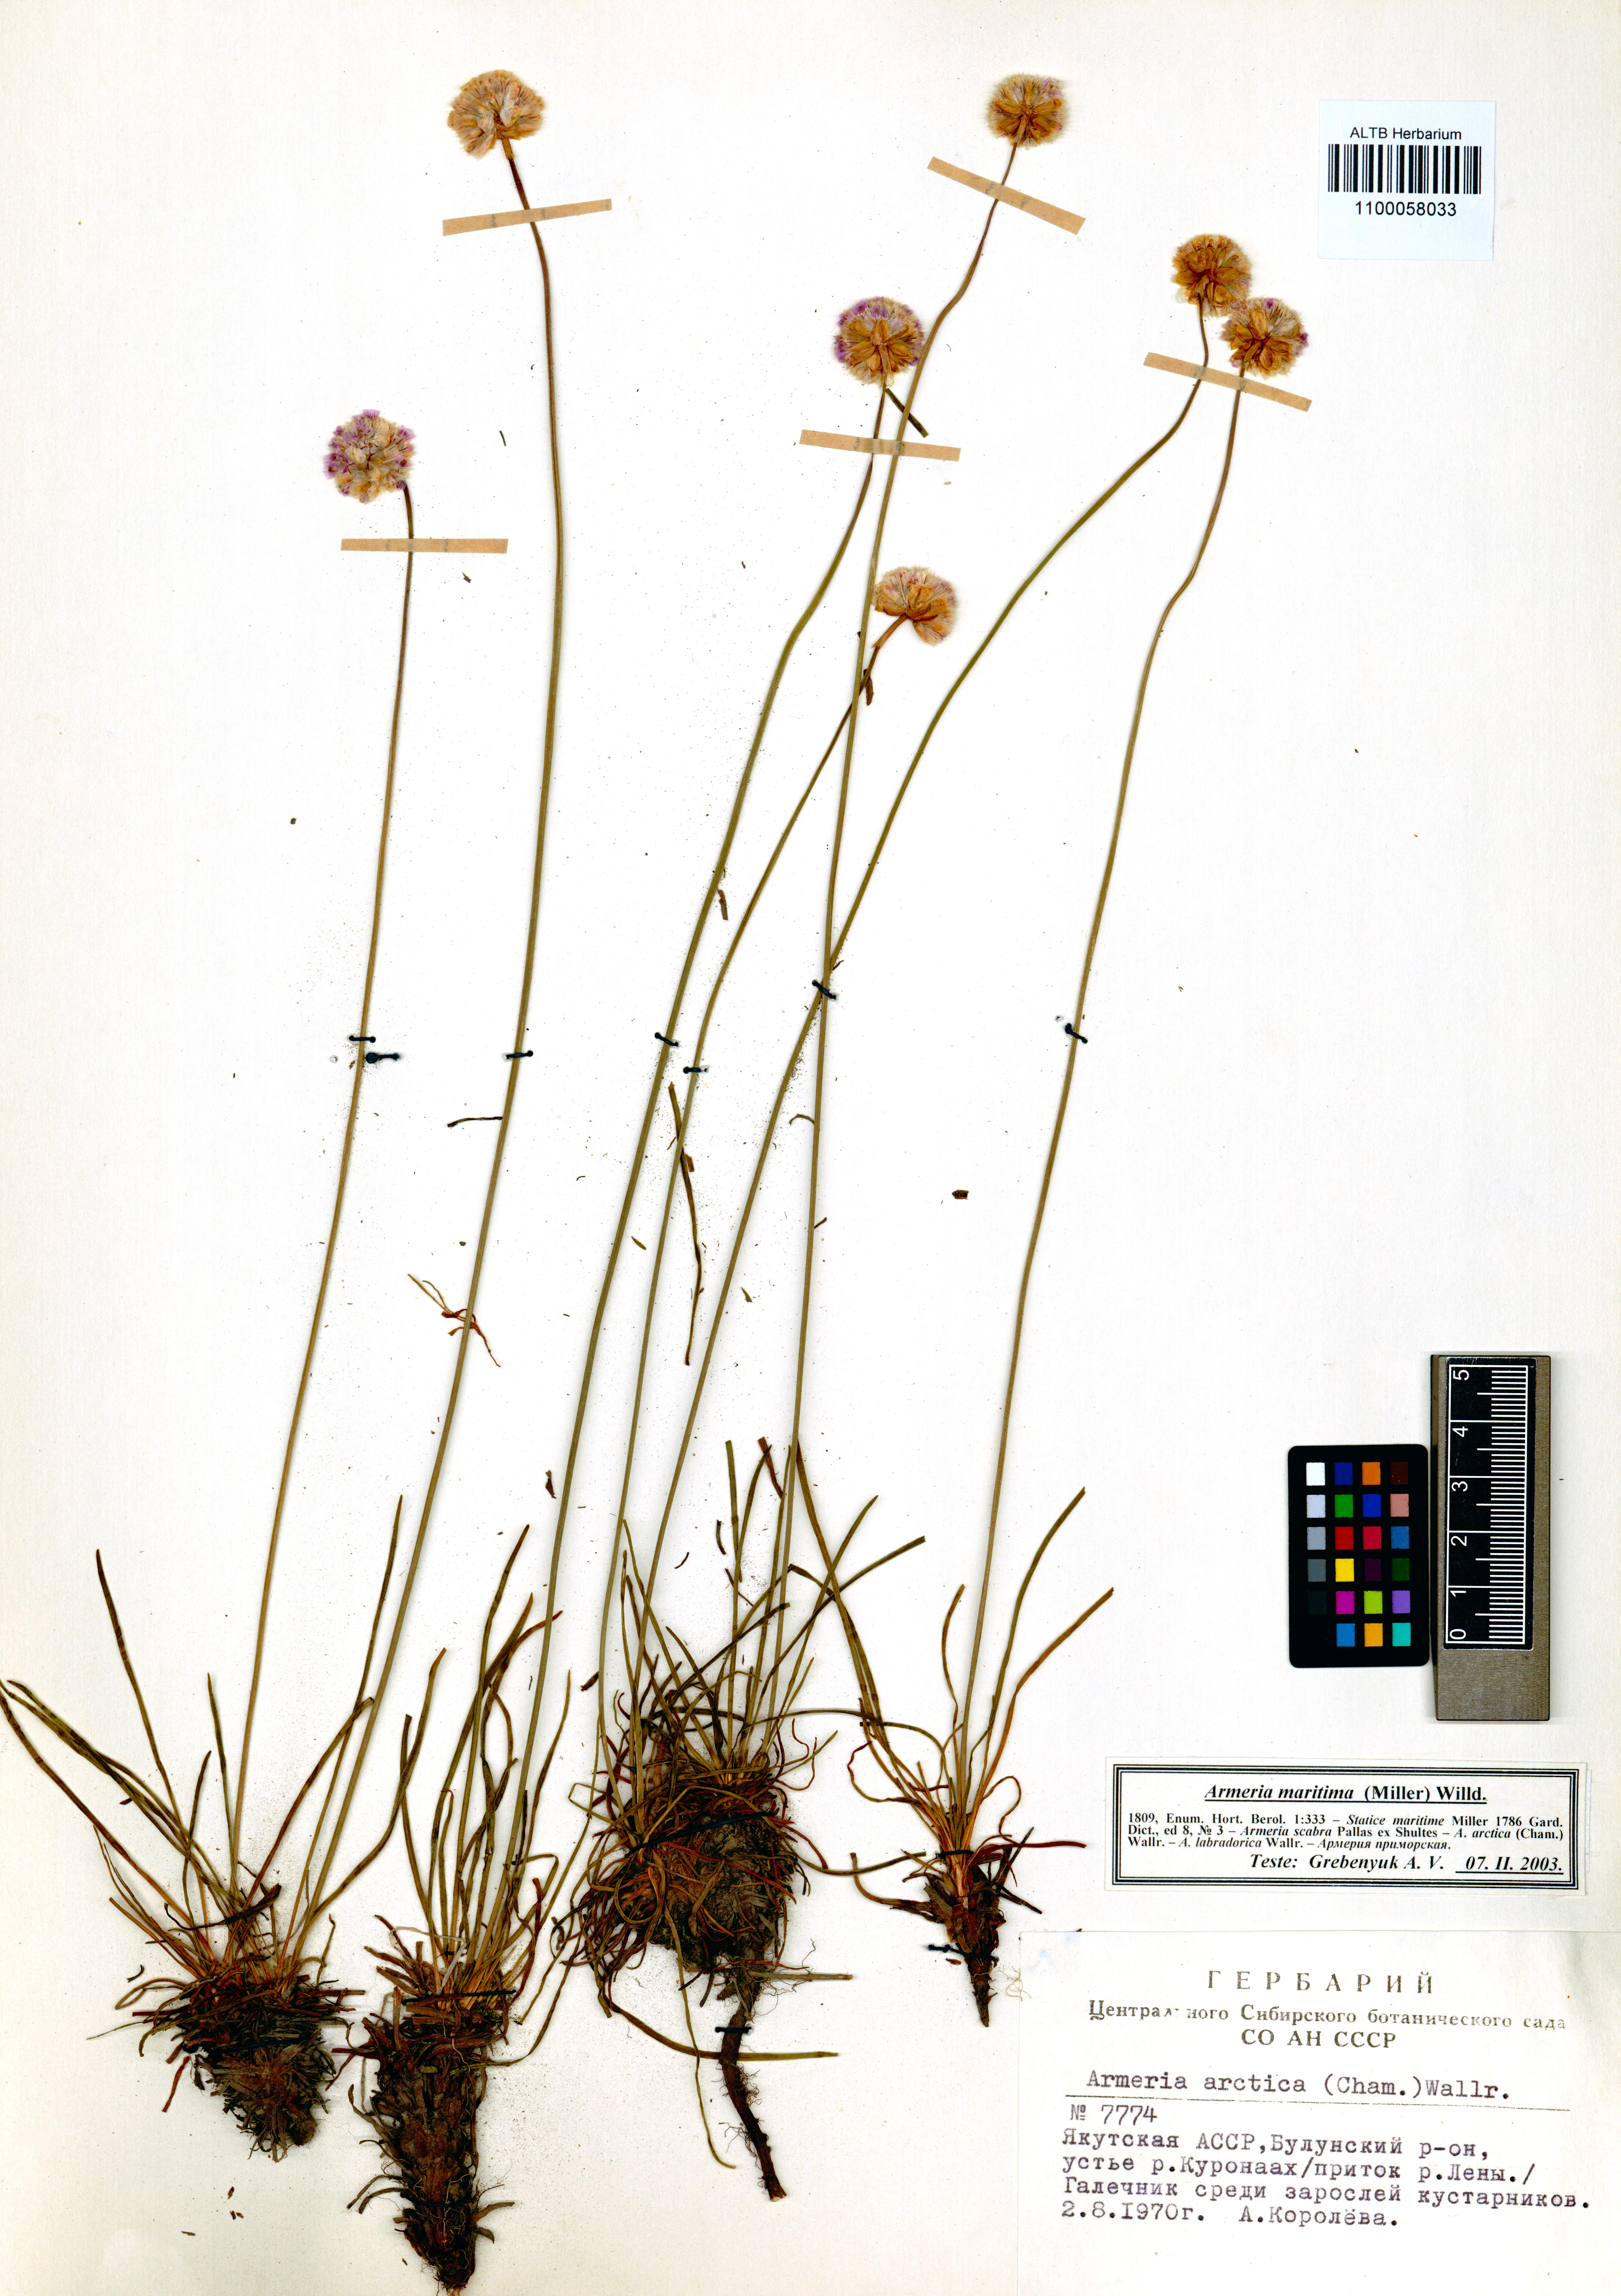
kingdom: Plantae
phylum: Tracheophyta
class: Magnoliopsida
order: Caryophyllales
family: Plumbaginaceae
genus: Armeria
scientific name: Armeria maritima
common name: Thrift
